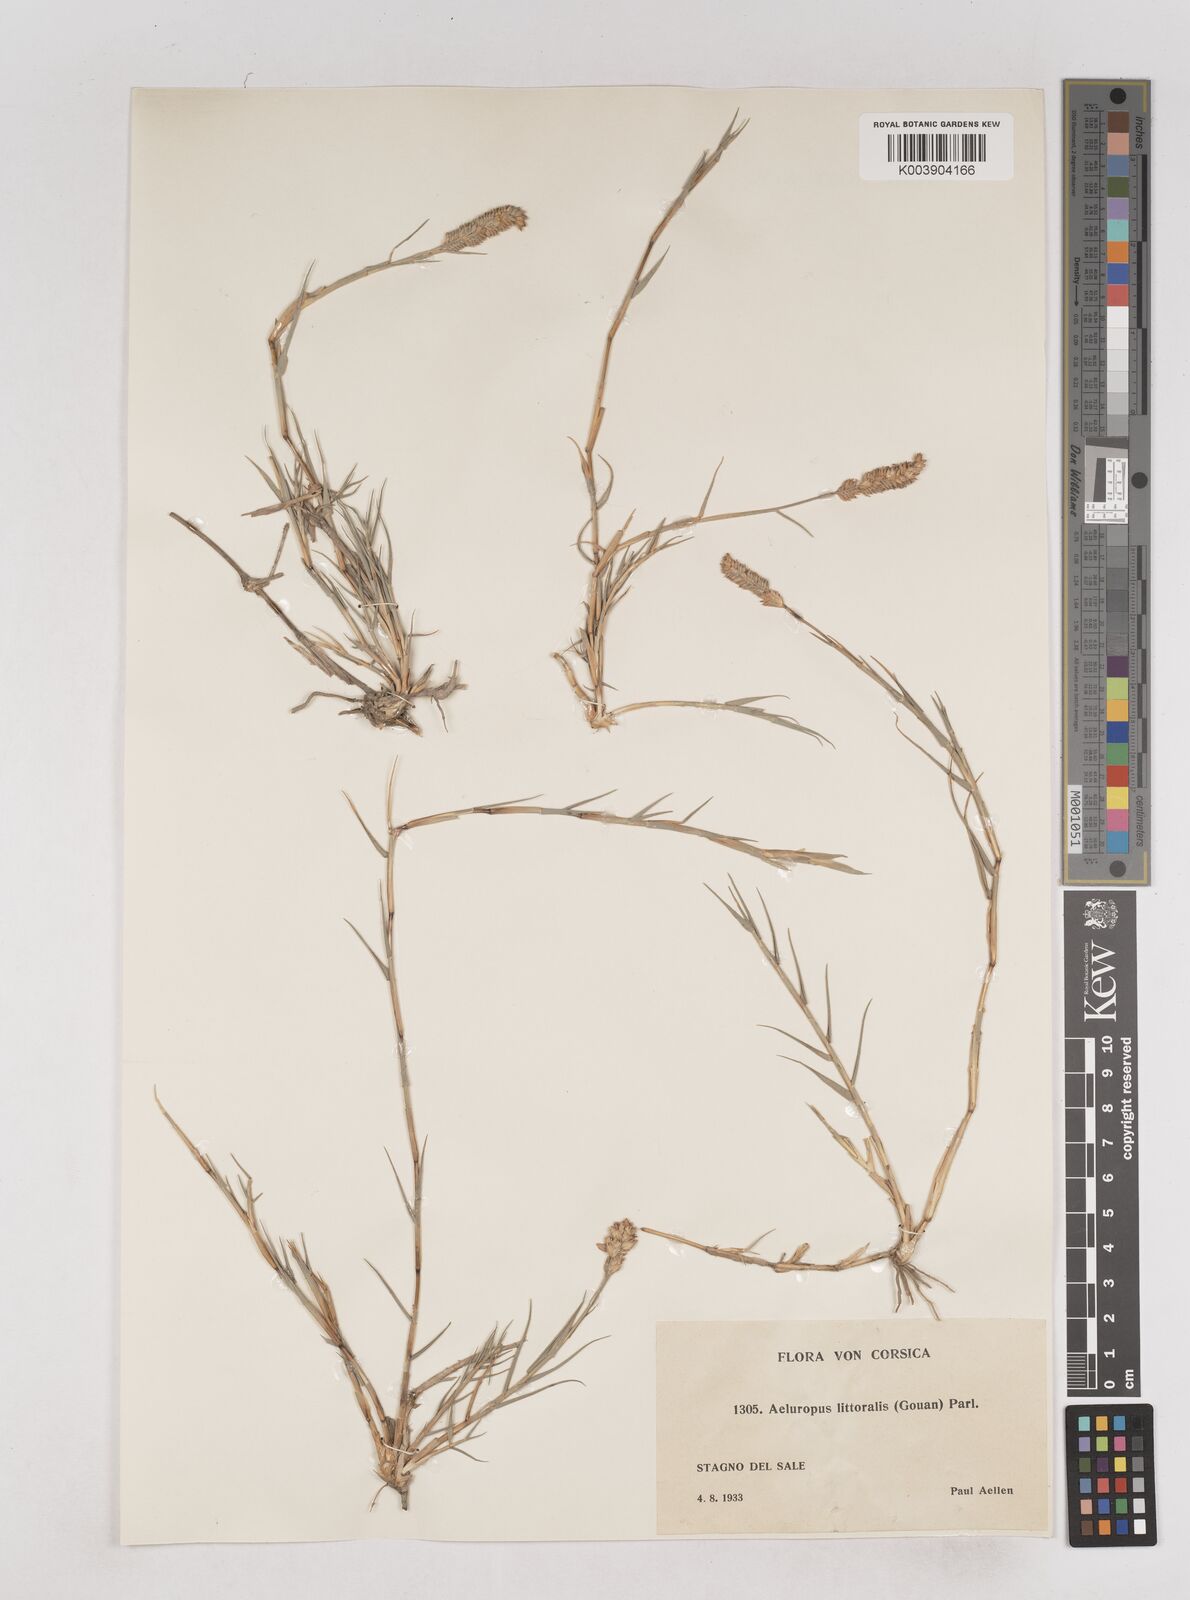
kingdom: Plantae
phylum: Tracheophyta
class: Liliopsida
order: Poales
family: Poaceae
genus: Aeluropus
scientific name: Aeluropus littoralis
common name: Indian walnut
